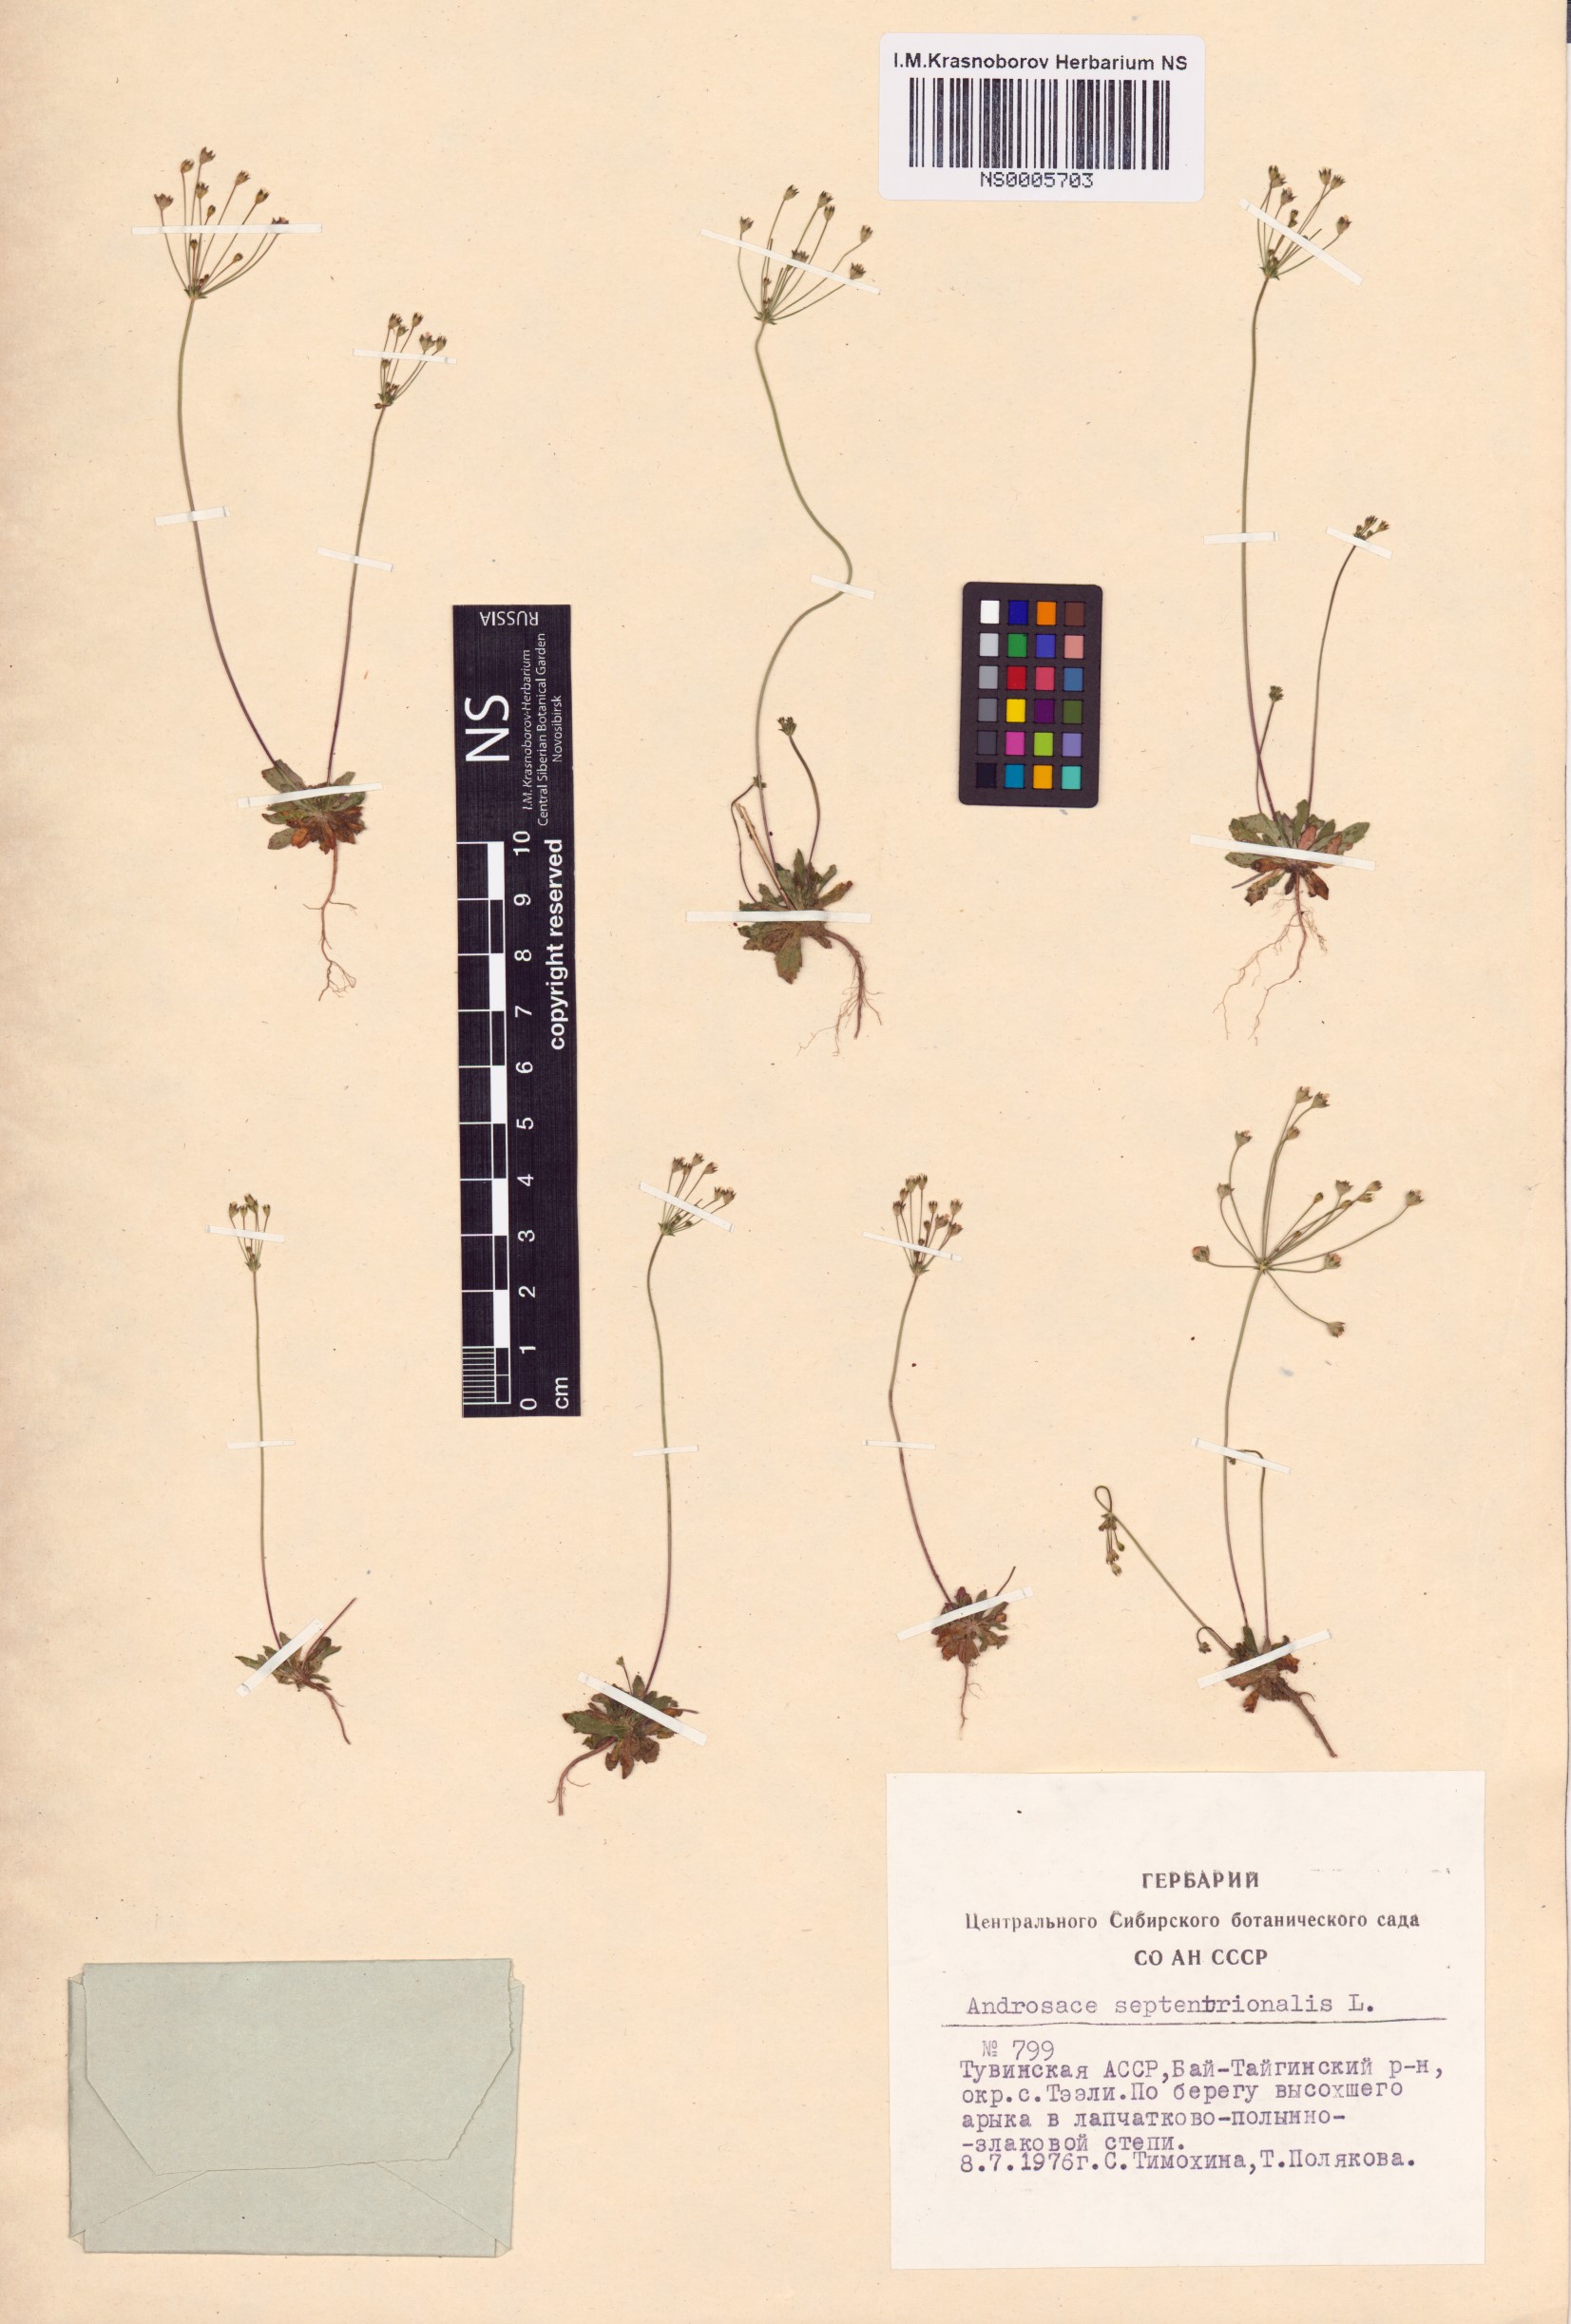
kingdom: Plantae
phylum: Tracheophyta
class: Magnoliopsida
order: Ericales
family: Primulaceae
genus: Androsace
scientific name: Androsace septentrionalis
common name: Hairy northern fairy-candelabra
